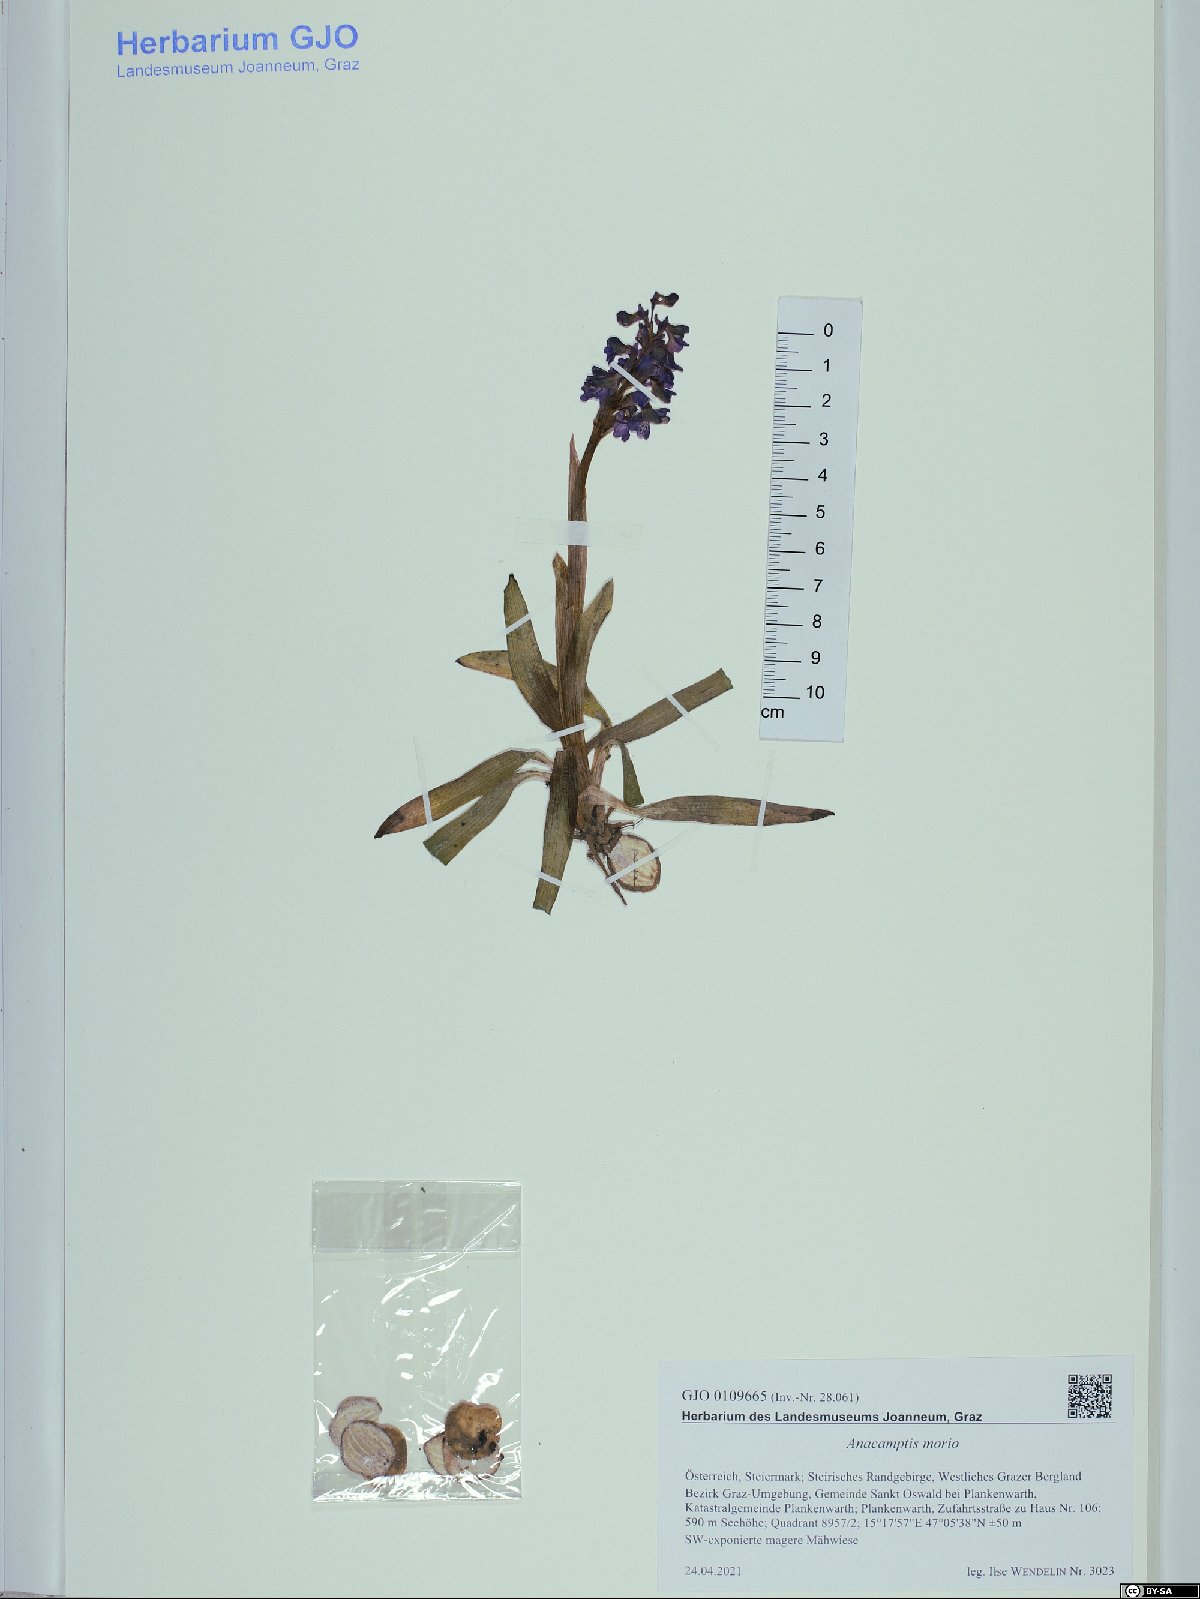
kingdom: Plantae
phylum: Tracheophyta
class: Liliopsida
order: Asparagales
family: Orchidaceae
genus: Anacamptis
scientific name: Anacamptis morio
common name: Green-winged orchid
